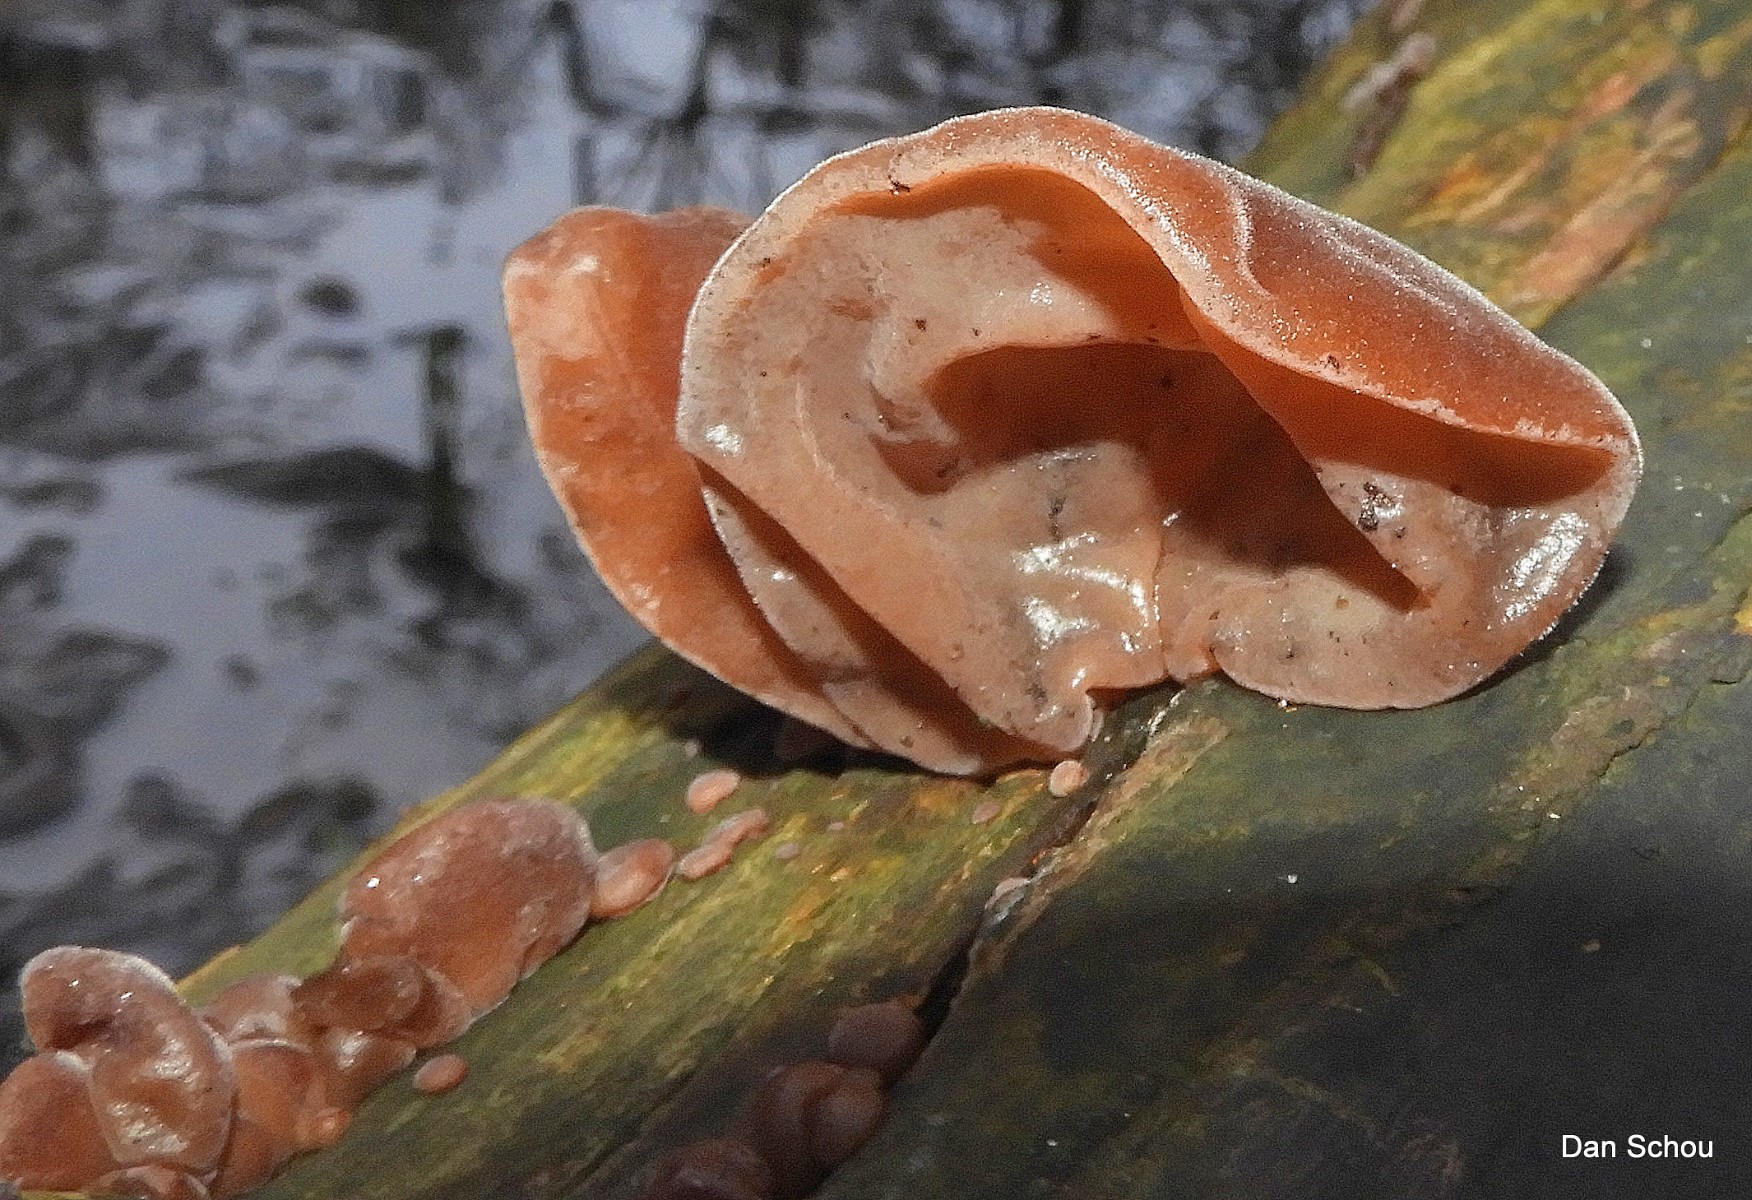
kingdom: Fungi
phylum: Basidiomycota
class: Agaricomycetes
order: Auriculariales
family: Auriculariaceae
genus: Auricularia
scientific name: Auricularia auricula-judae
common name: almindelig judasøre
